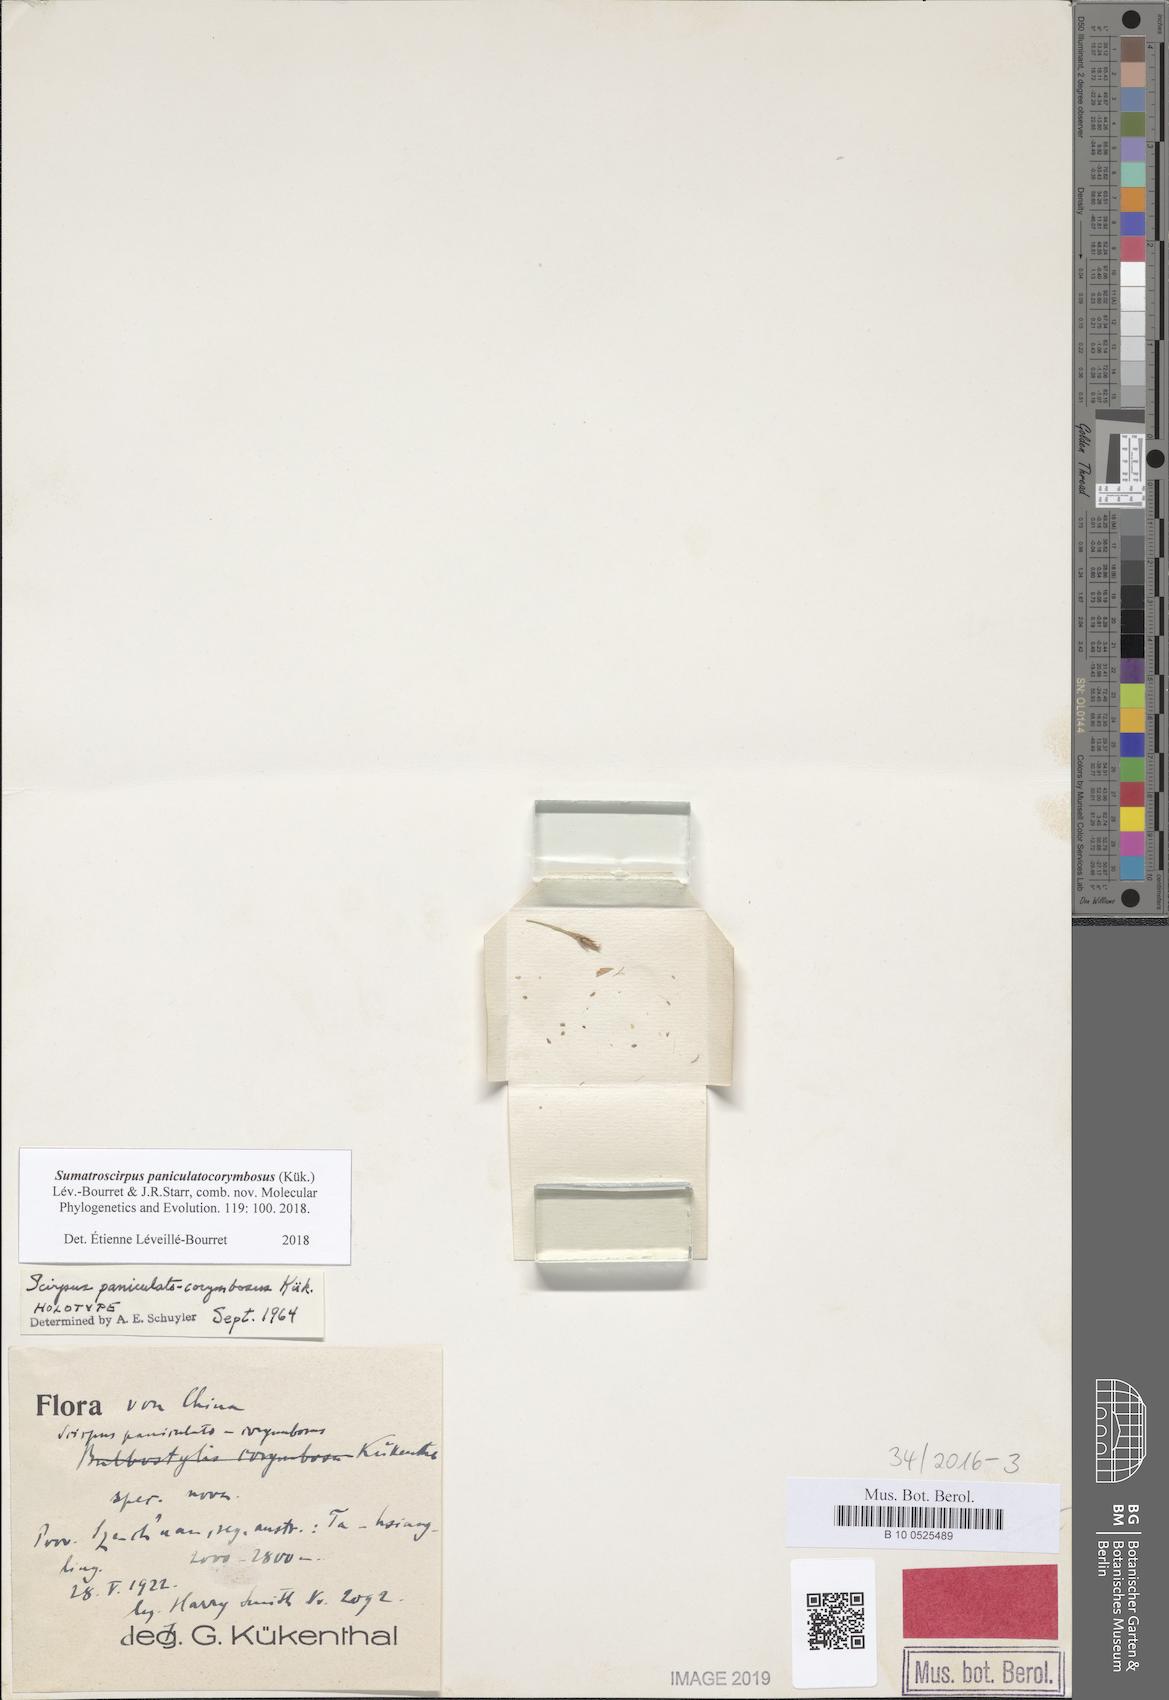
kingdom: Plantae
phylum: Tracheophyta
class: Liliopsida
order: Poales
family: Cyperaceae
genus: Sumatroscirpus
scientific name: Sumatroscirpus paniculatocorymbosus
